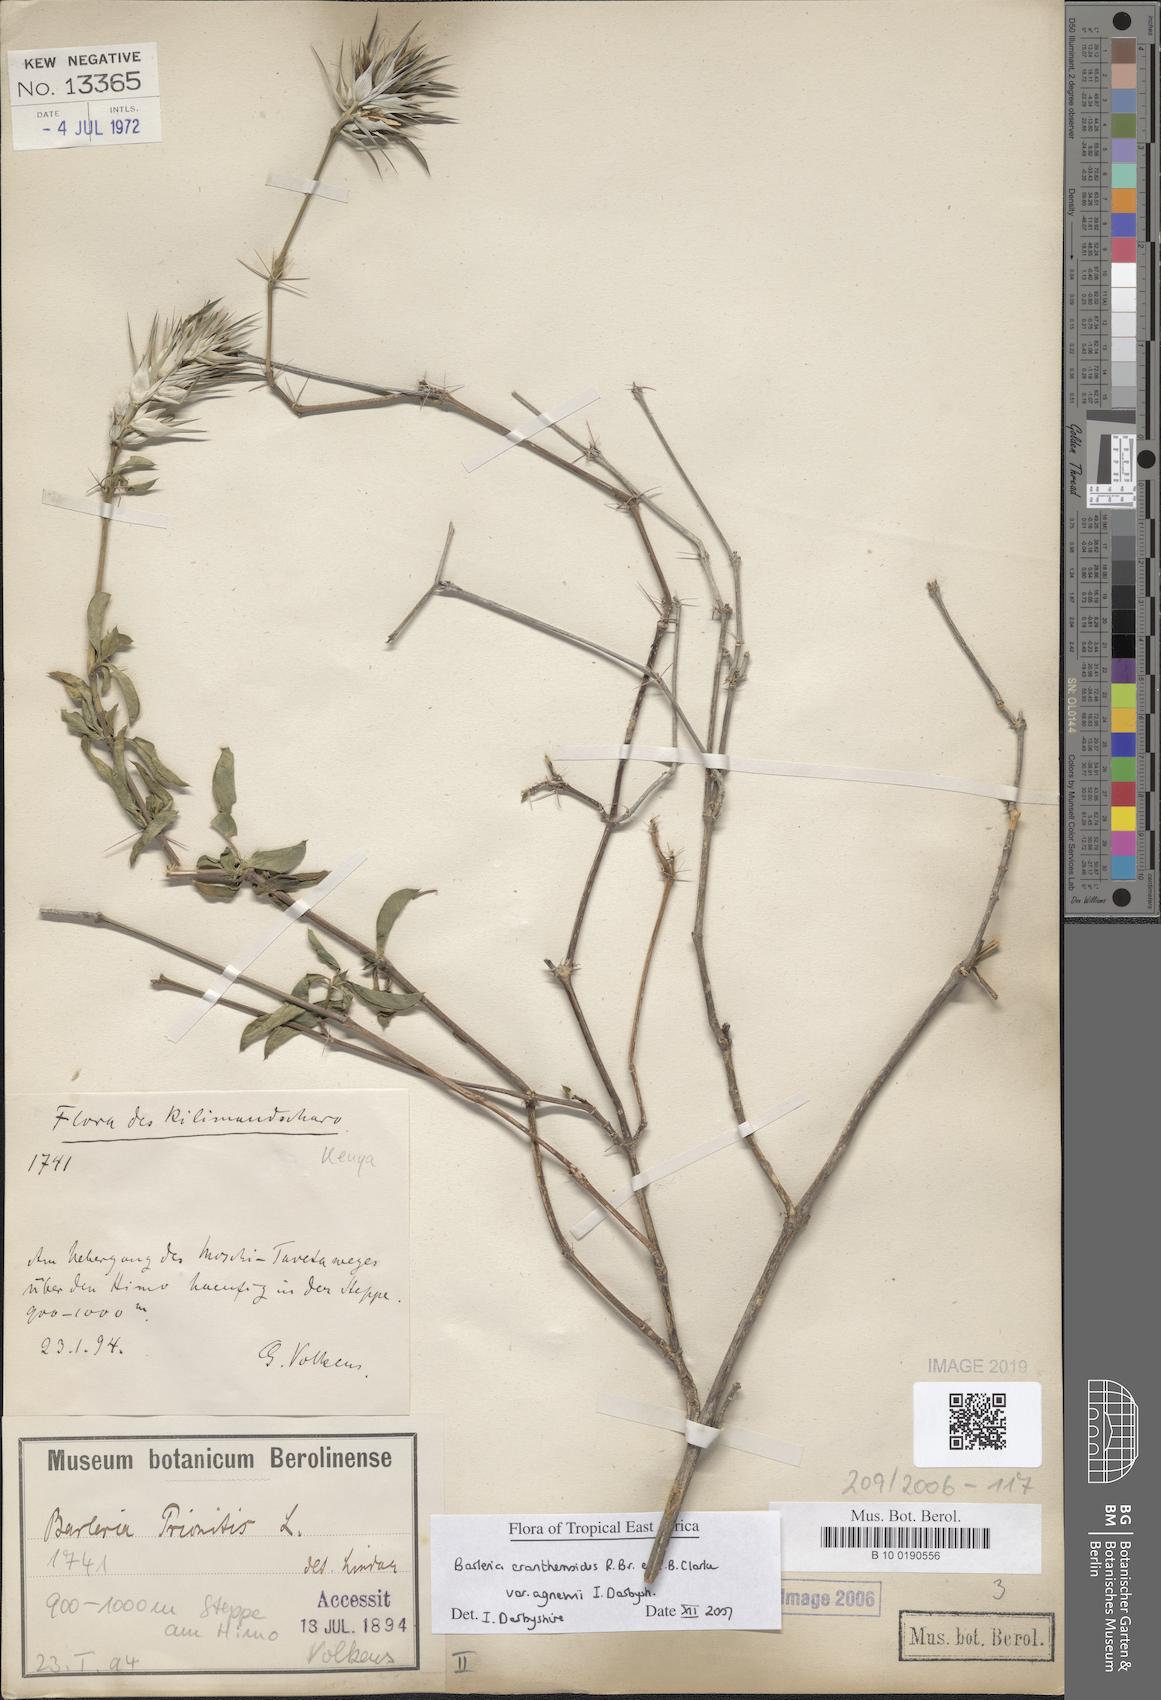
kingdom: Plantae
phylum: Tracheophyta
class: Magnoliopsida
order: Lamiales
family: Acanthaceae
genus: Barleria
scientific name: Barleria prionitis
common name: Barleria
